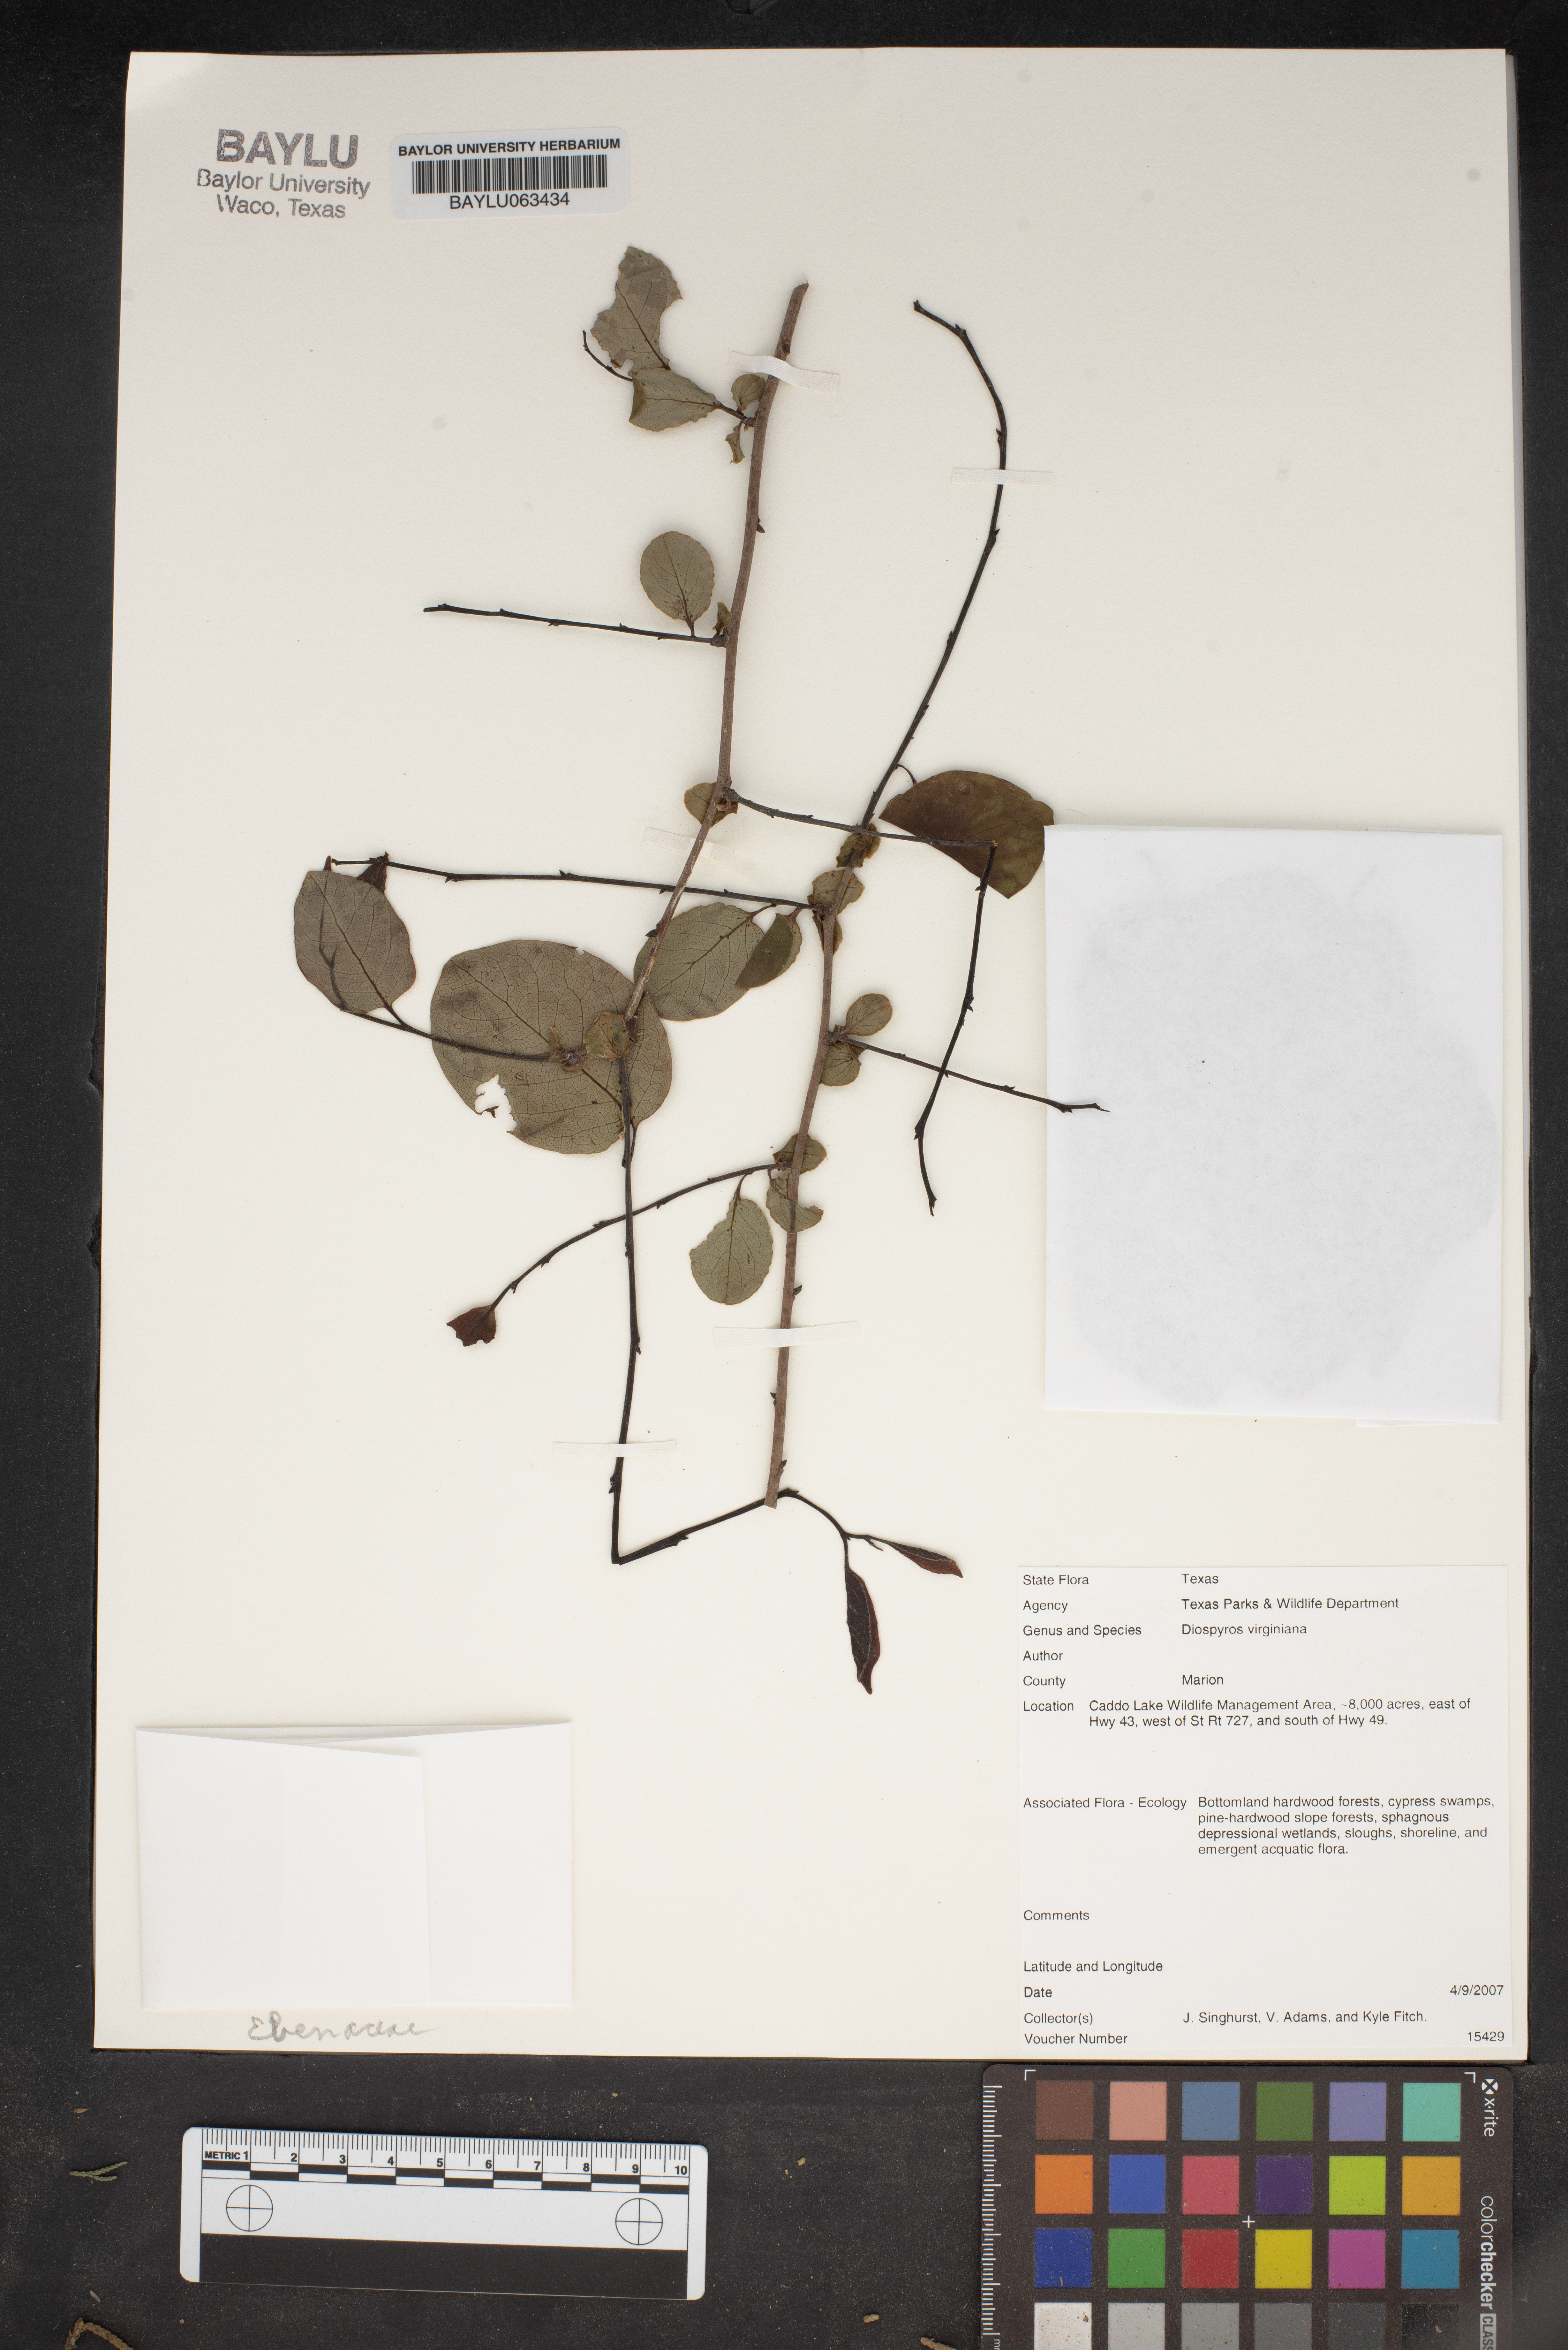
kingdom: Plantae
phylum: Tracheophyta
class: Magnoliopsida
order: Ericales
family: Ebenaceae
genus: Diospyros
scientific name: Diospyros virginiana
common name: Persimmon
